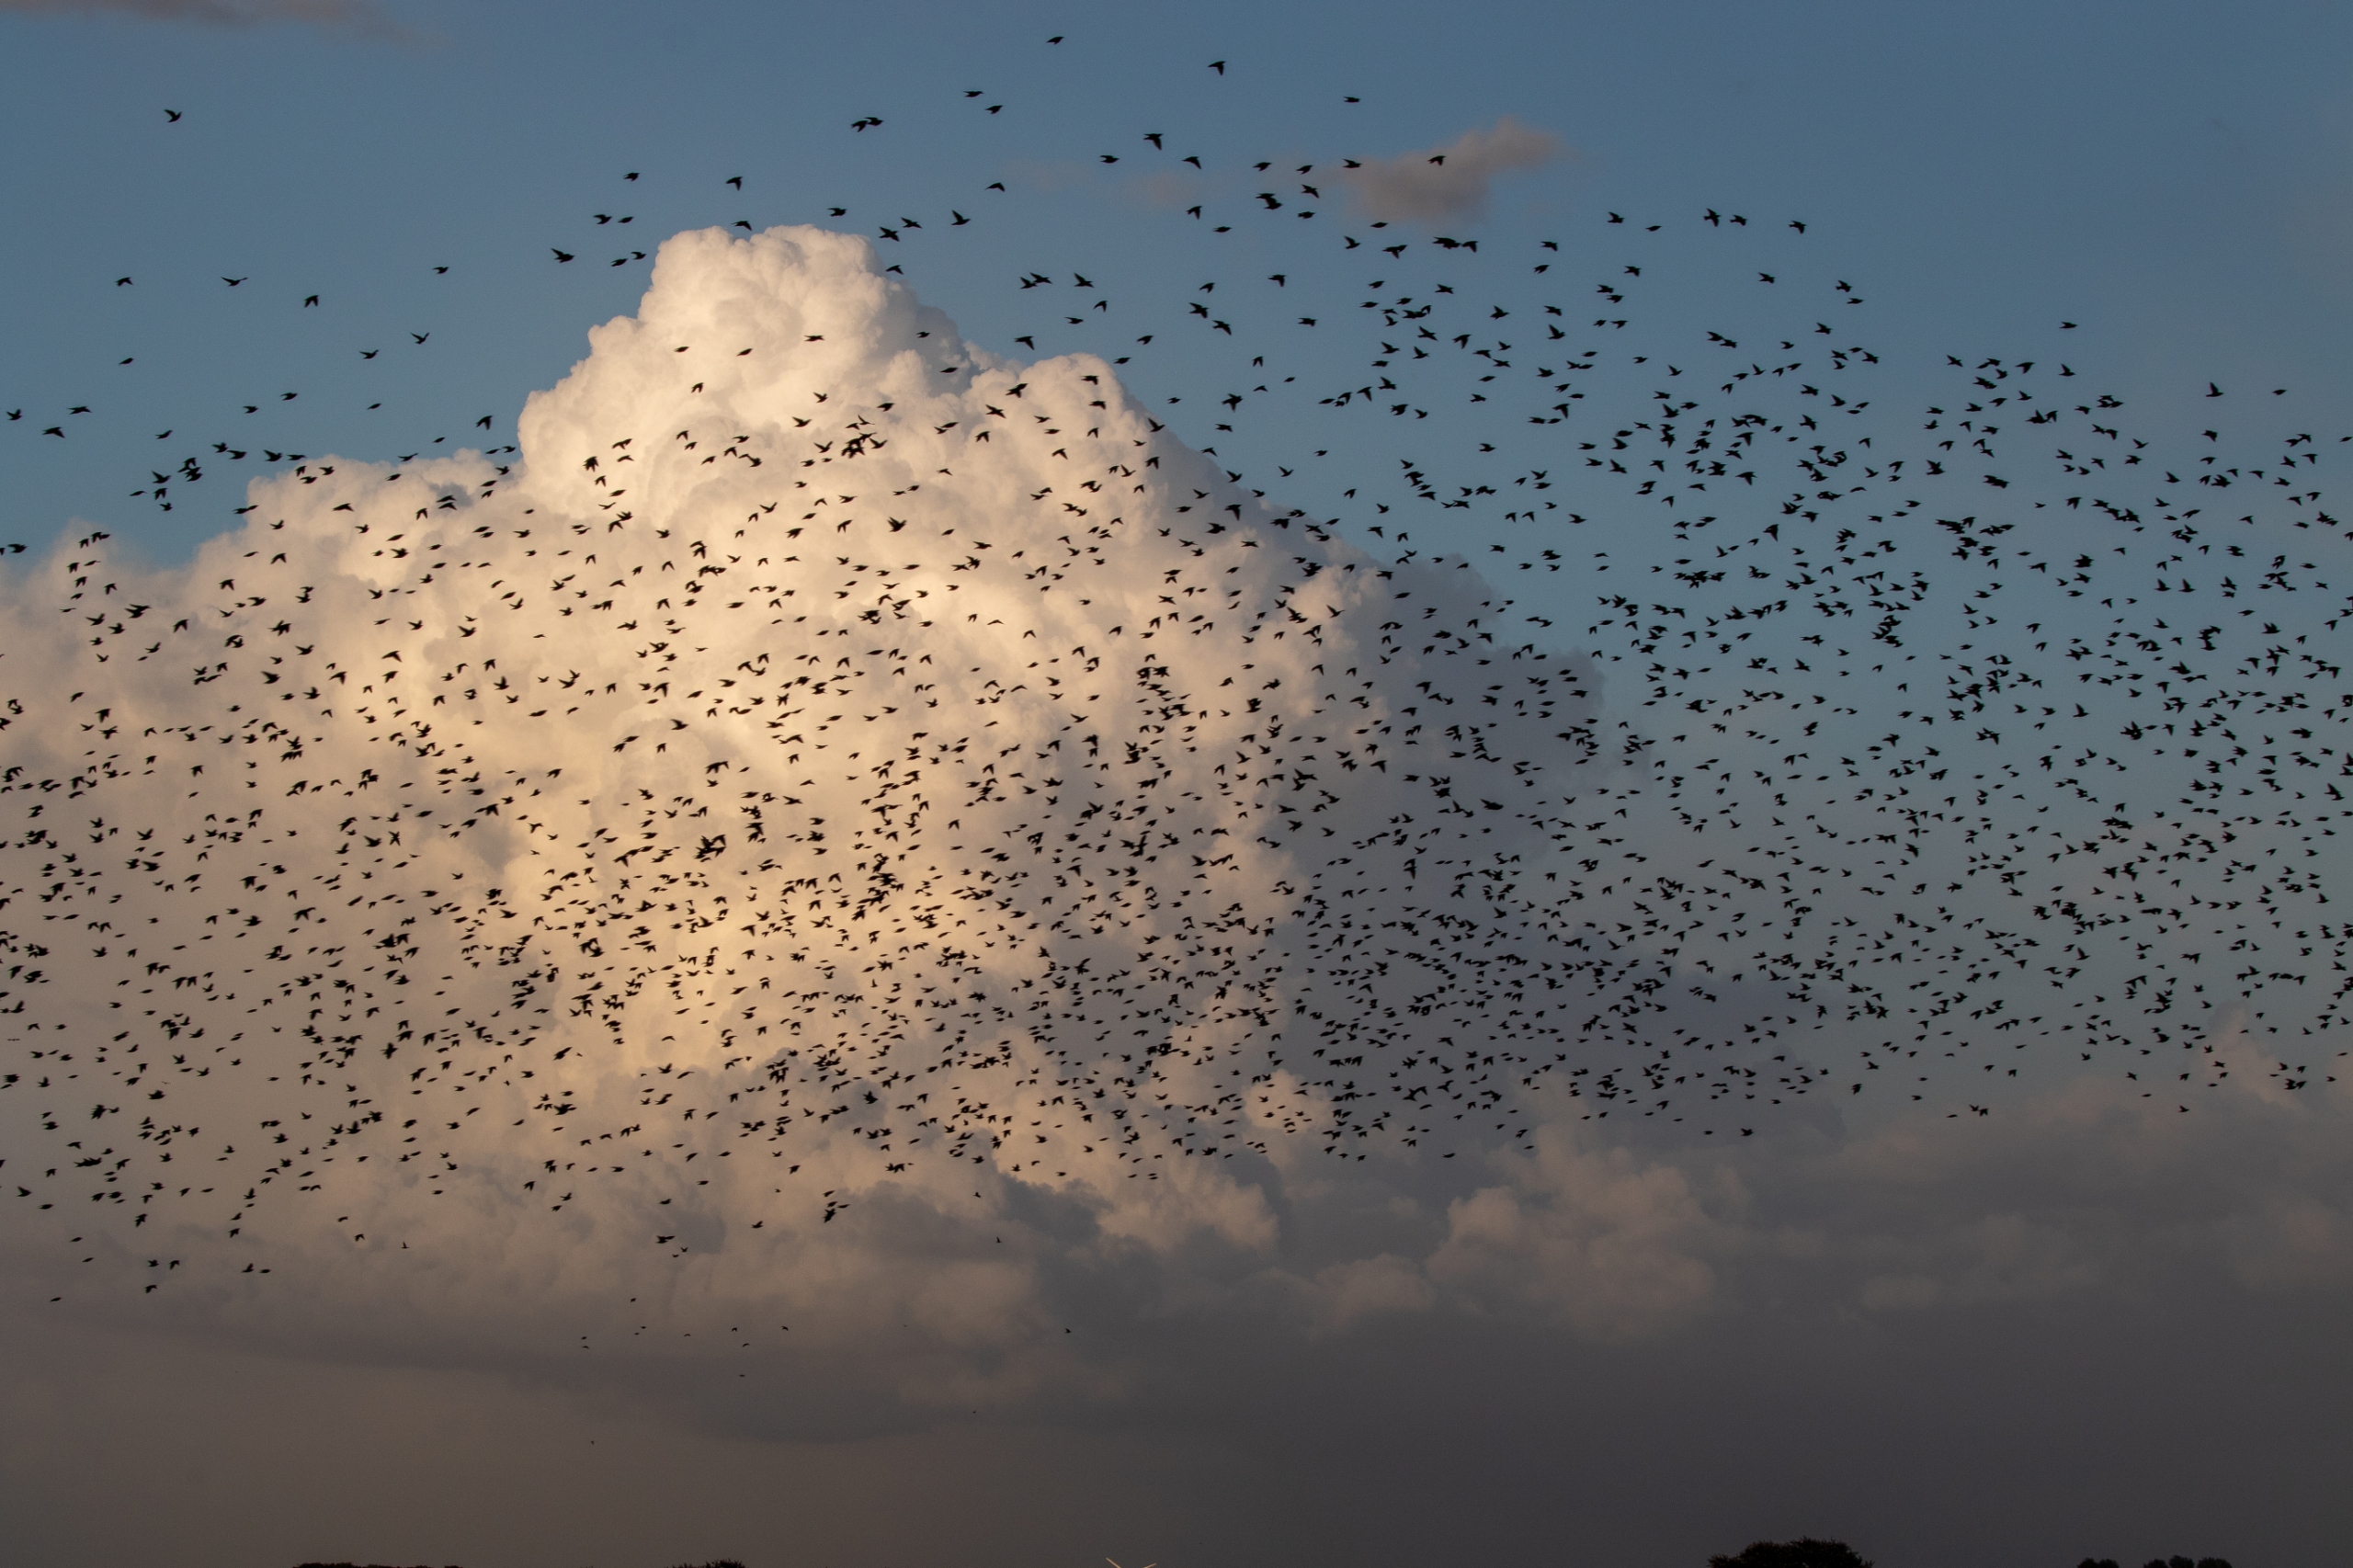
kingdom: Animalia
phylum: Chordata
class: Aves
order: Passeriformes
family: Sturnidae
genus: Sturnus
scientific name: Sturnus vulgaris
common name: Stær
